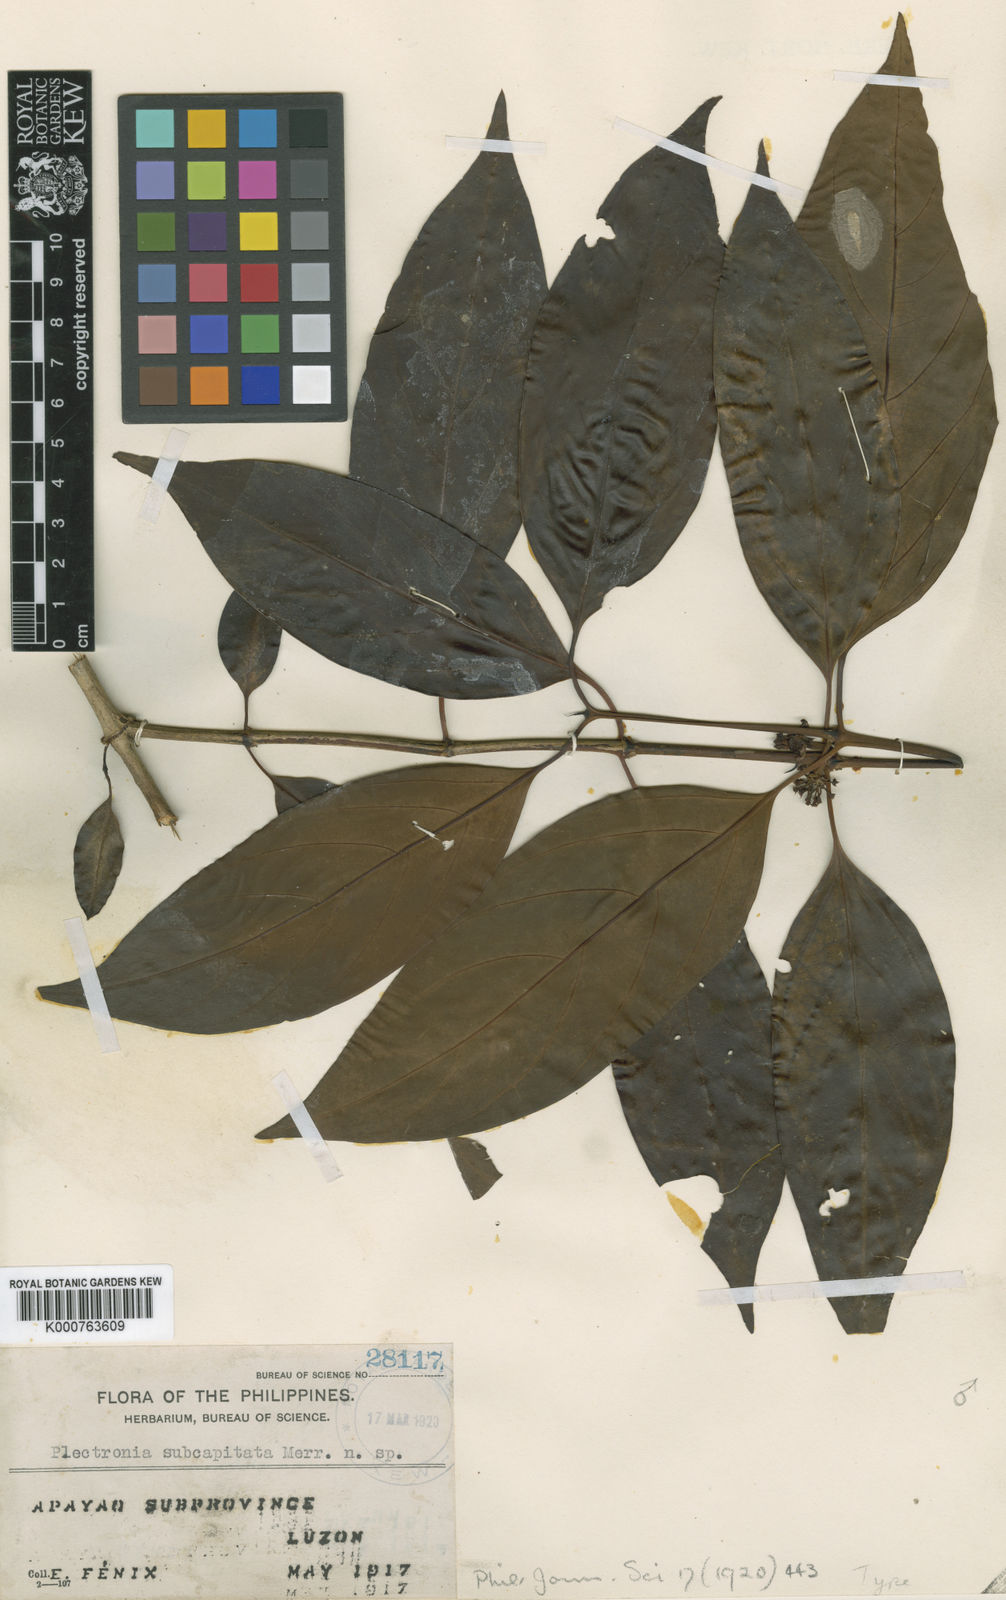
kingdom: Plantae
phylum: Tracheophyta
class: Magnoliopsida
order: Gentianales
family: Rubiaceae
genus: Canthium
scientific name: Canthium subcapitatum
